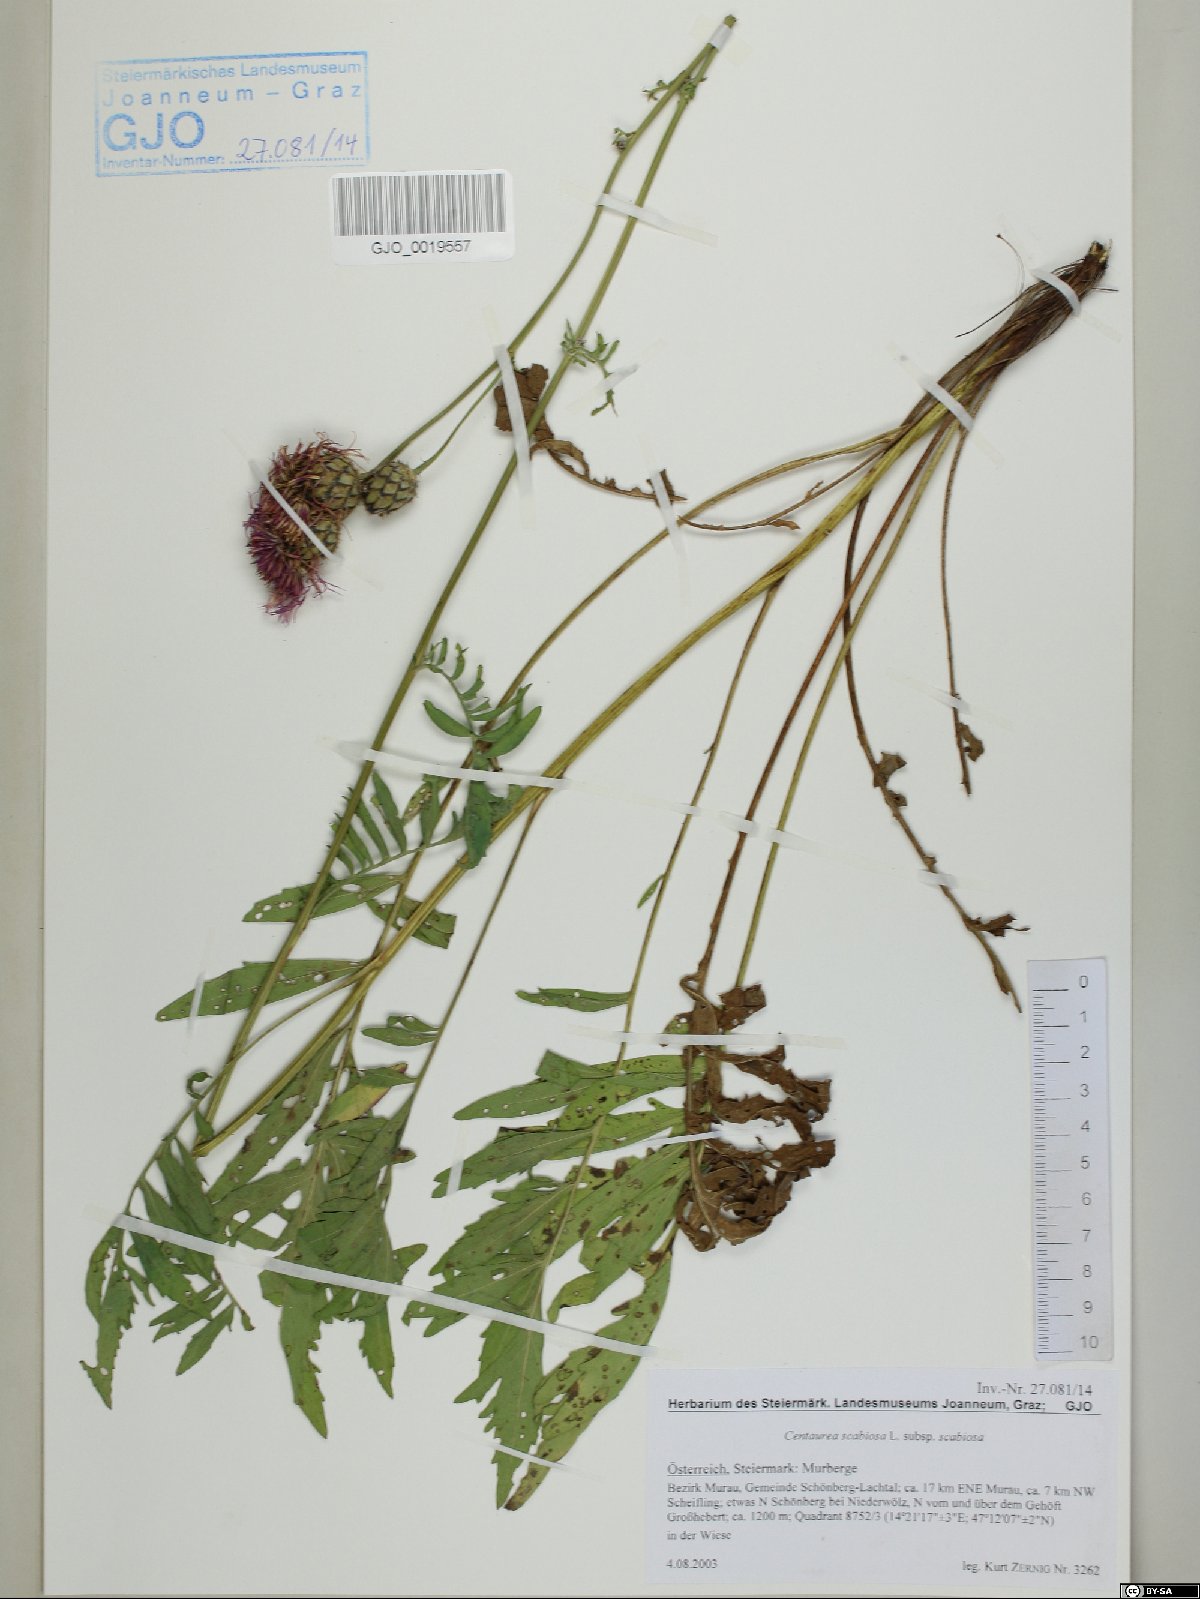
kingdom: Plantae
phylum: Tracheophyta
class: Magnoliopsida
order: Asterales
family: Asteraceae
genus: Centaurea
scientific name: Centaurea scabiosa
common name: Greater knapweed
